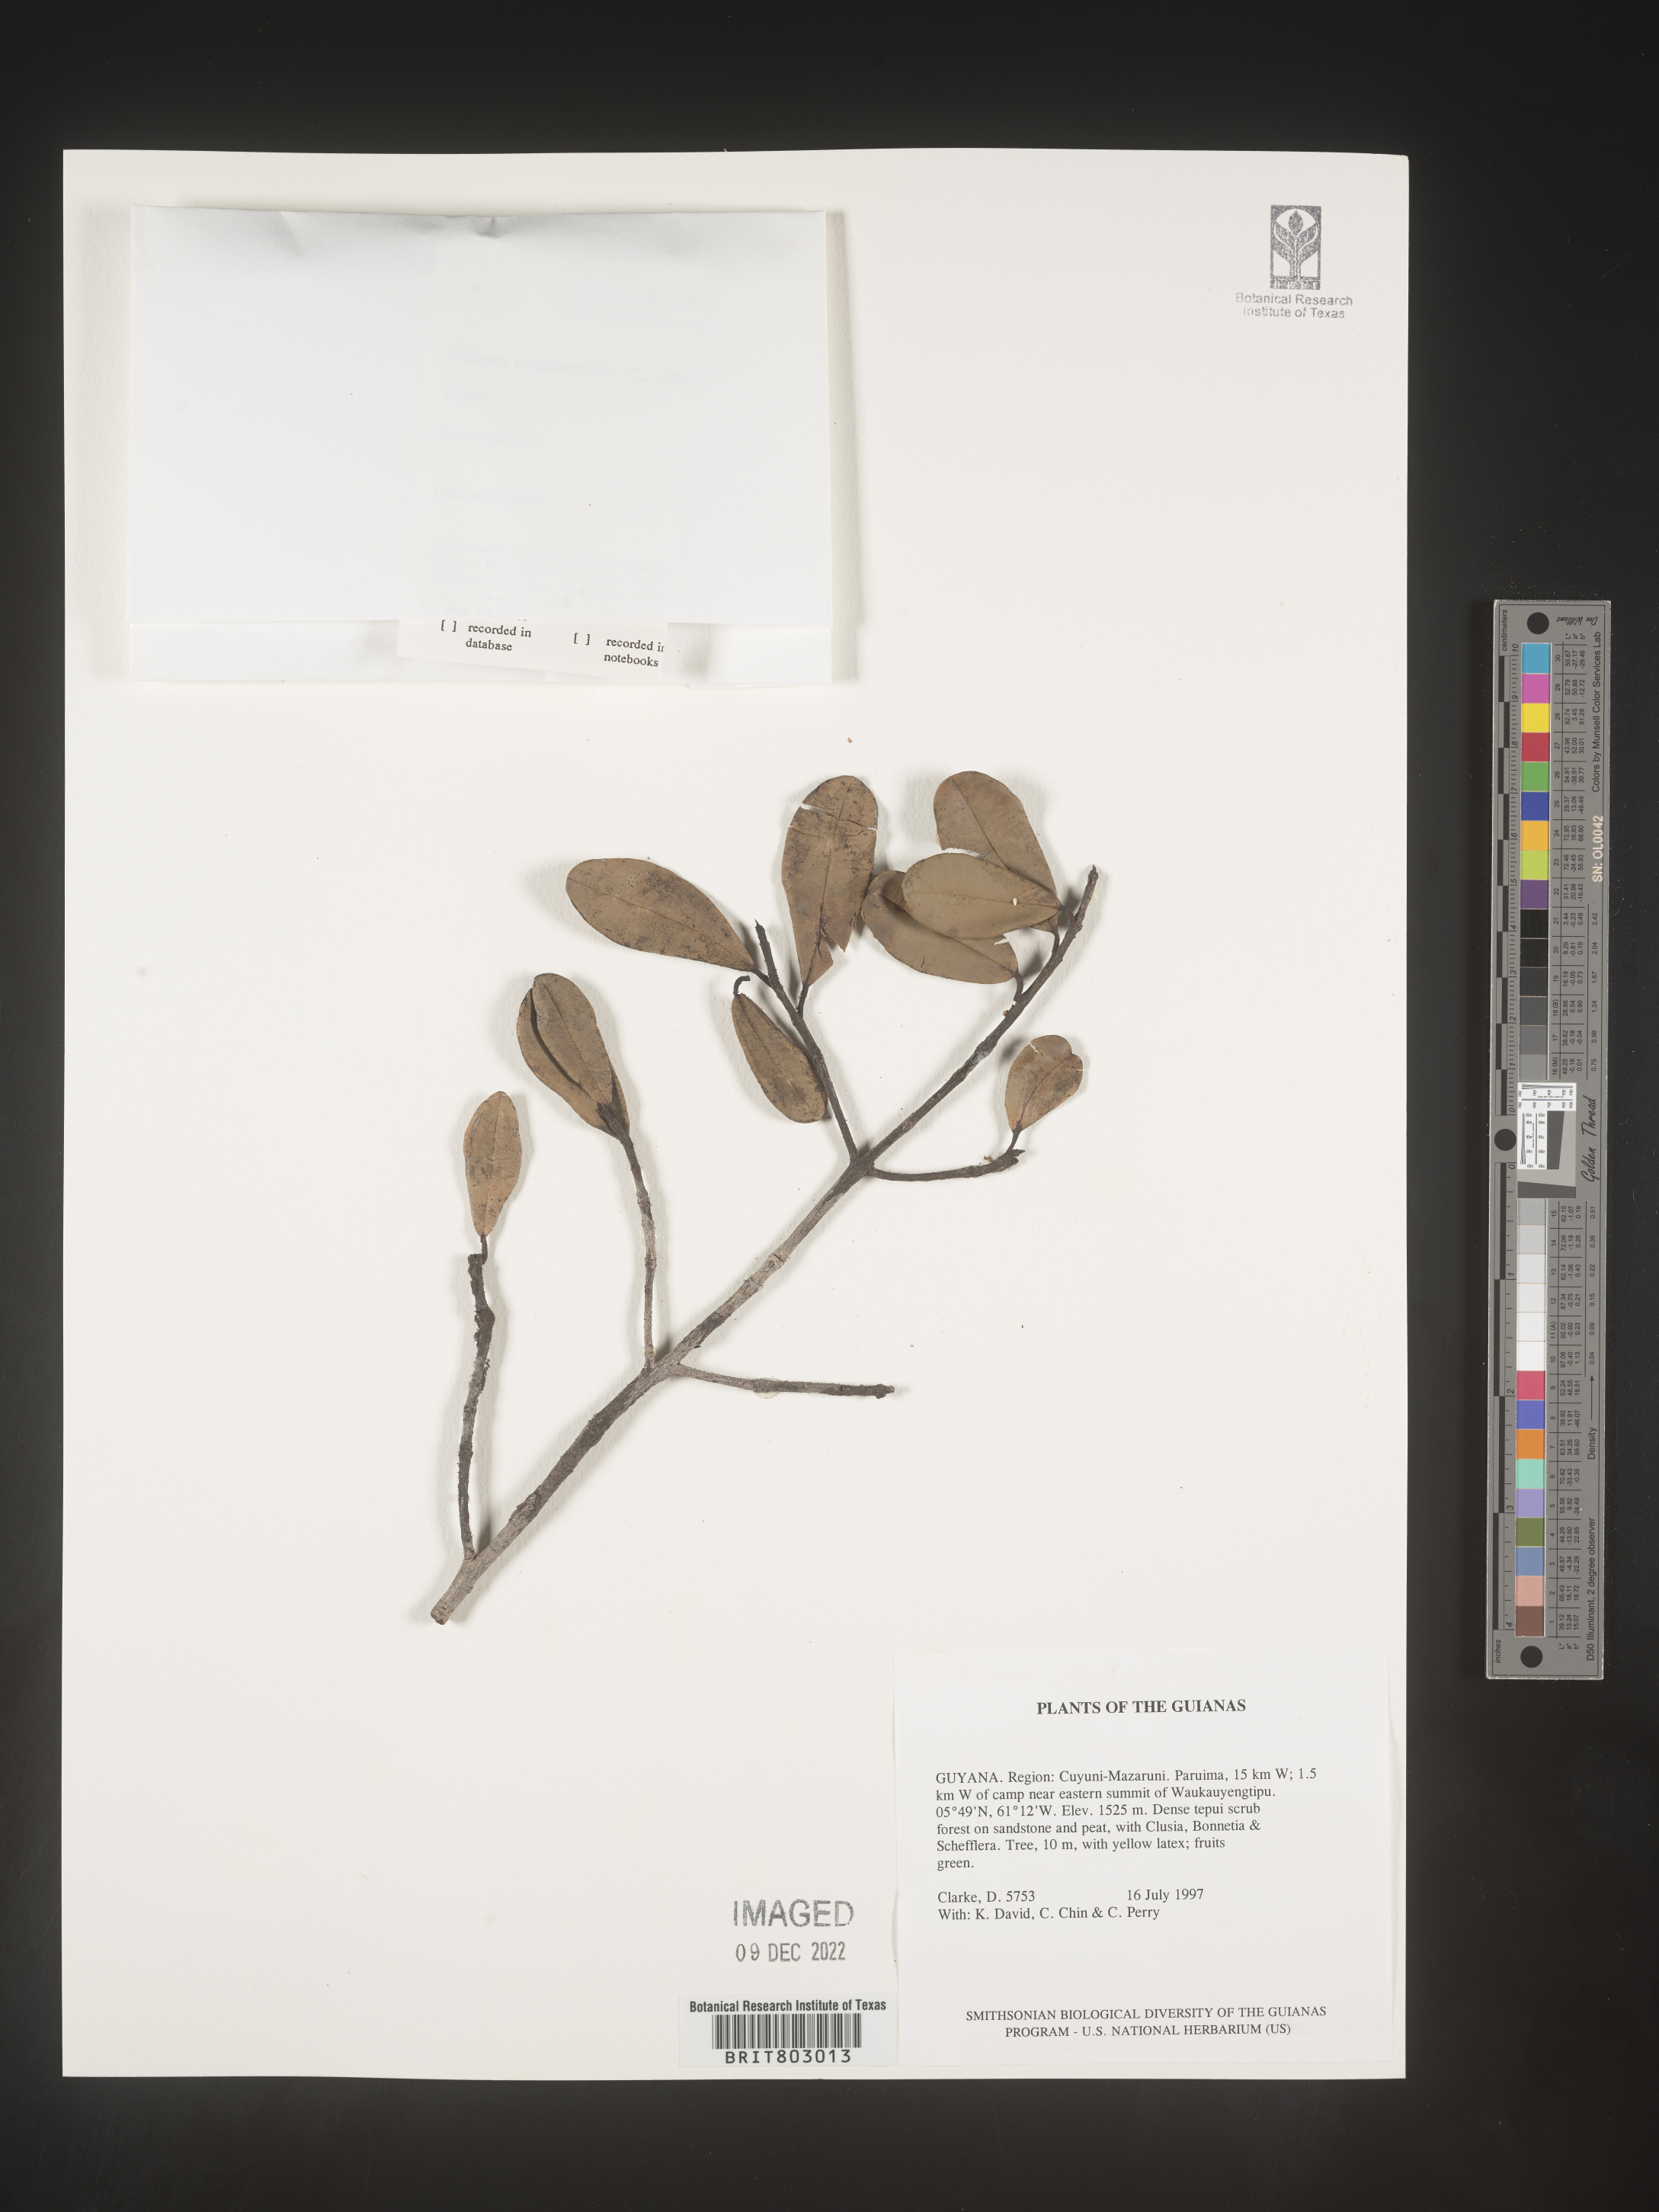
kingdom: Plantae
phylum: Tracheophyta
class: Magnoliopsida
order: Malpighiales
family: Clusiaceae
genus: Moronobea
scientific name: Moronobea
